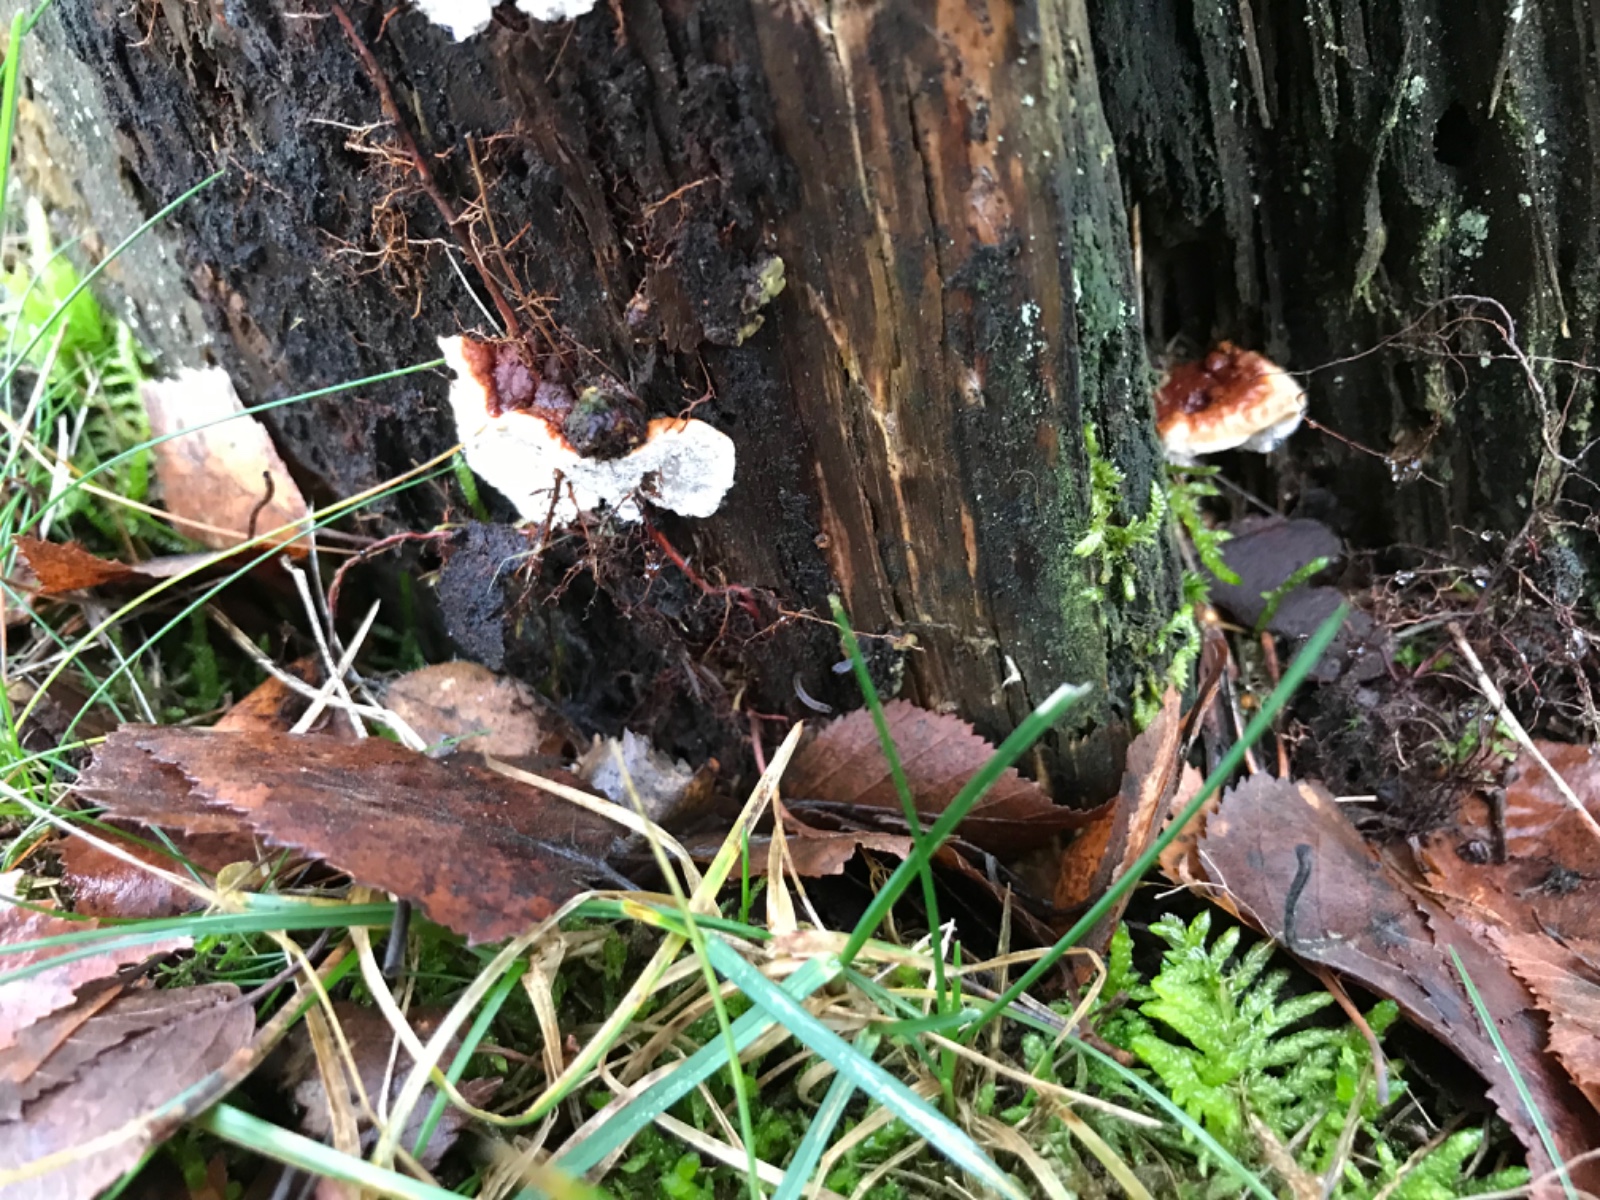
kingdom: Fungi
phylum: Basidiomycota
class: Agaricomycetes
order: Russulales
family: Bondarzewiaceae
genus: Heterobasidion
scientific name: Heterobasidion annosum
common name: almindelig rodfordærver
